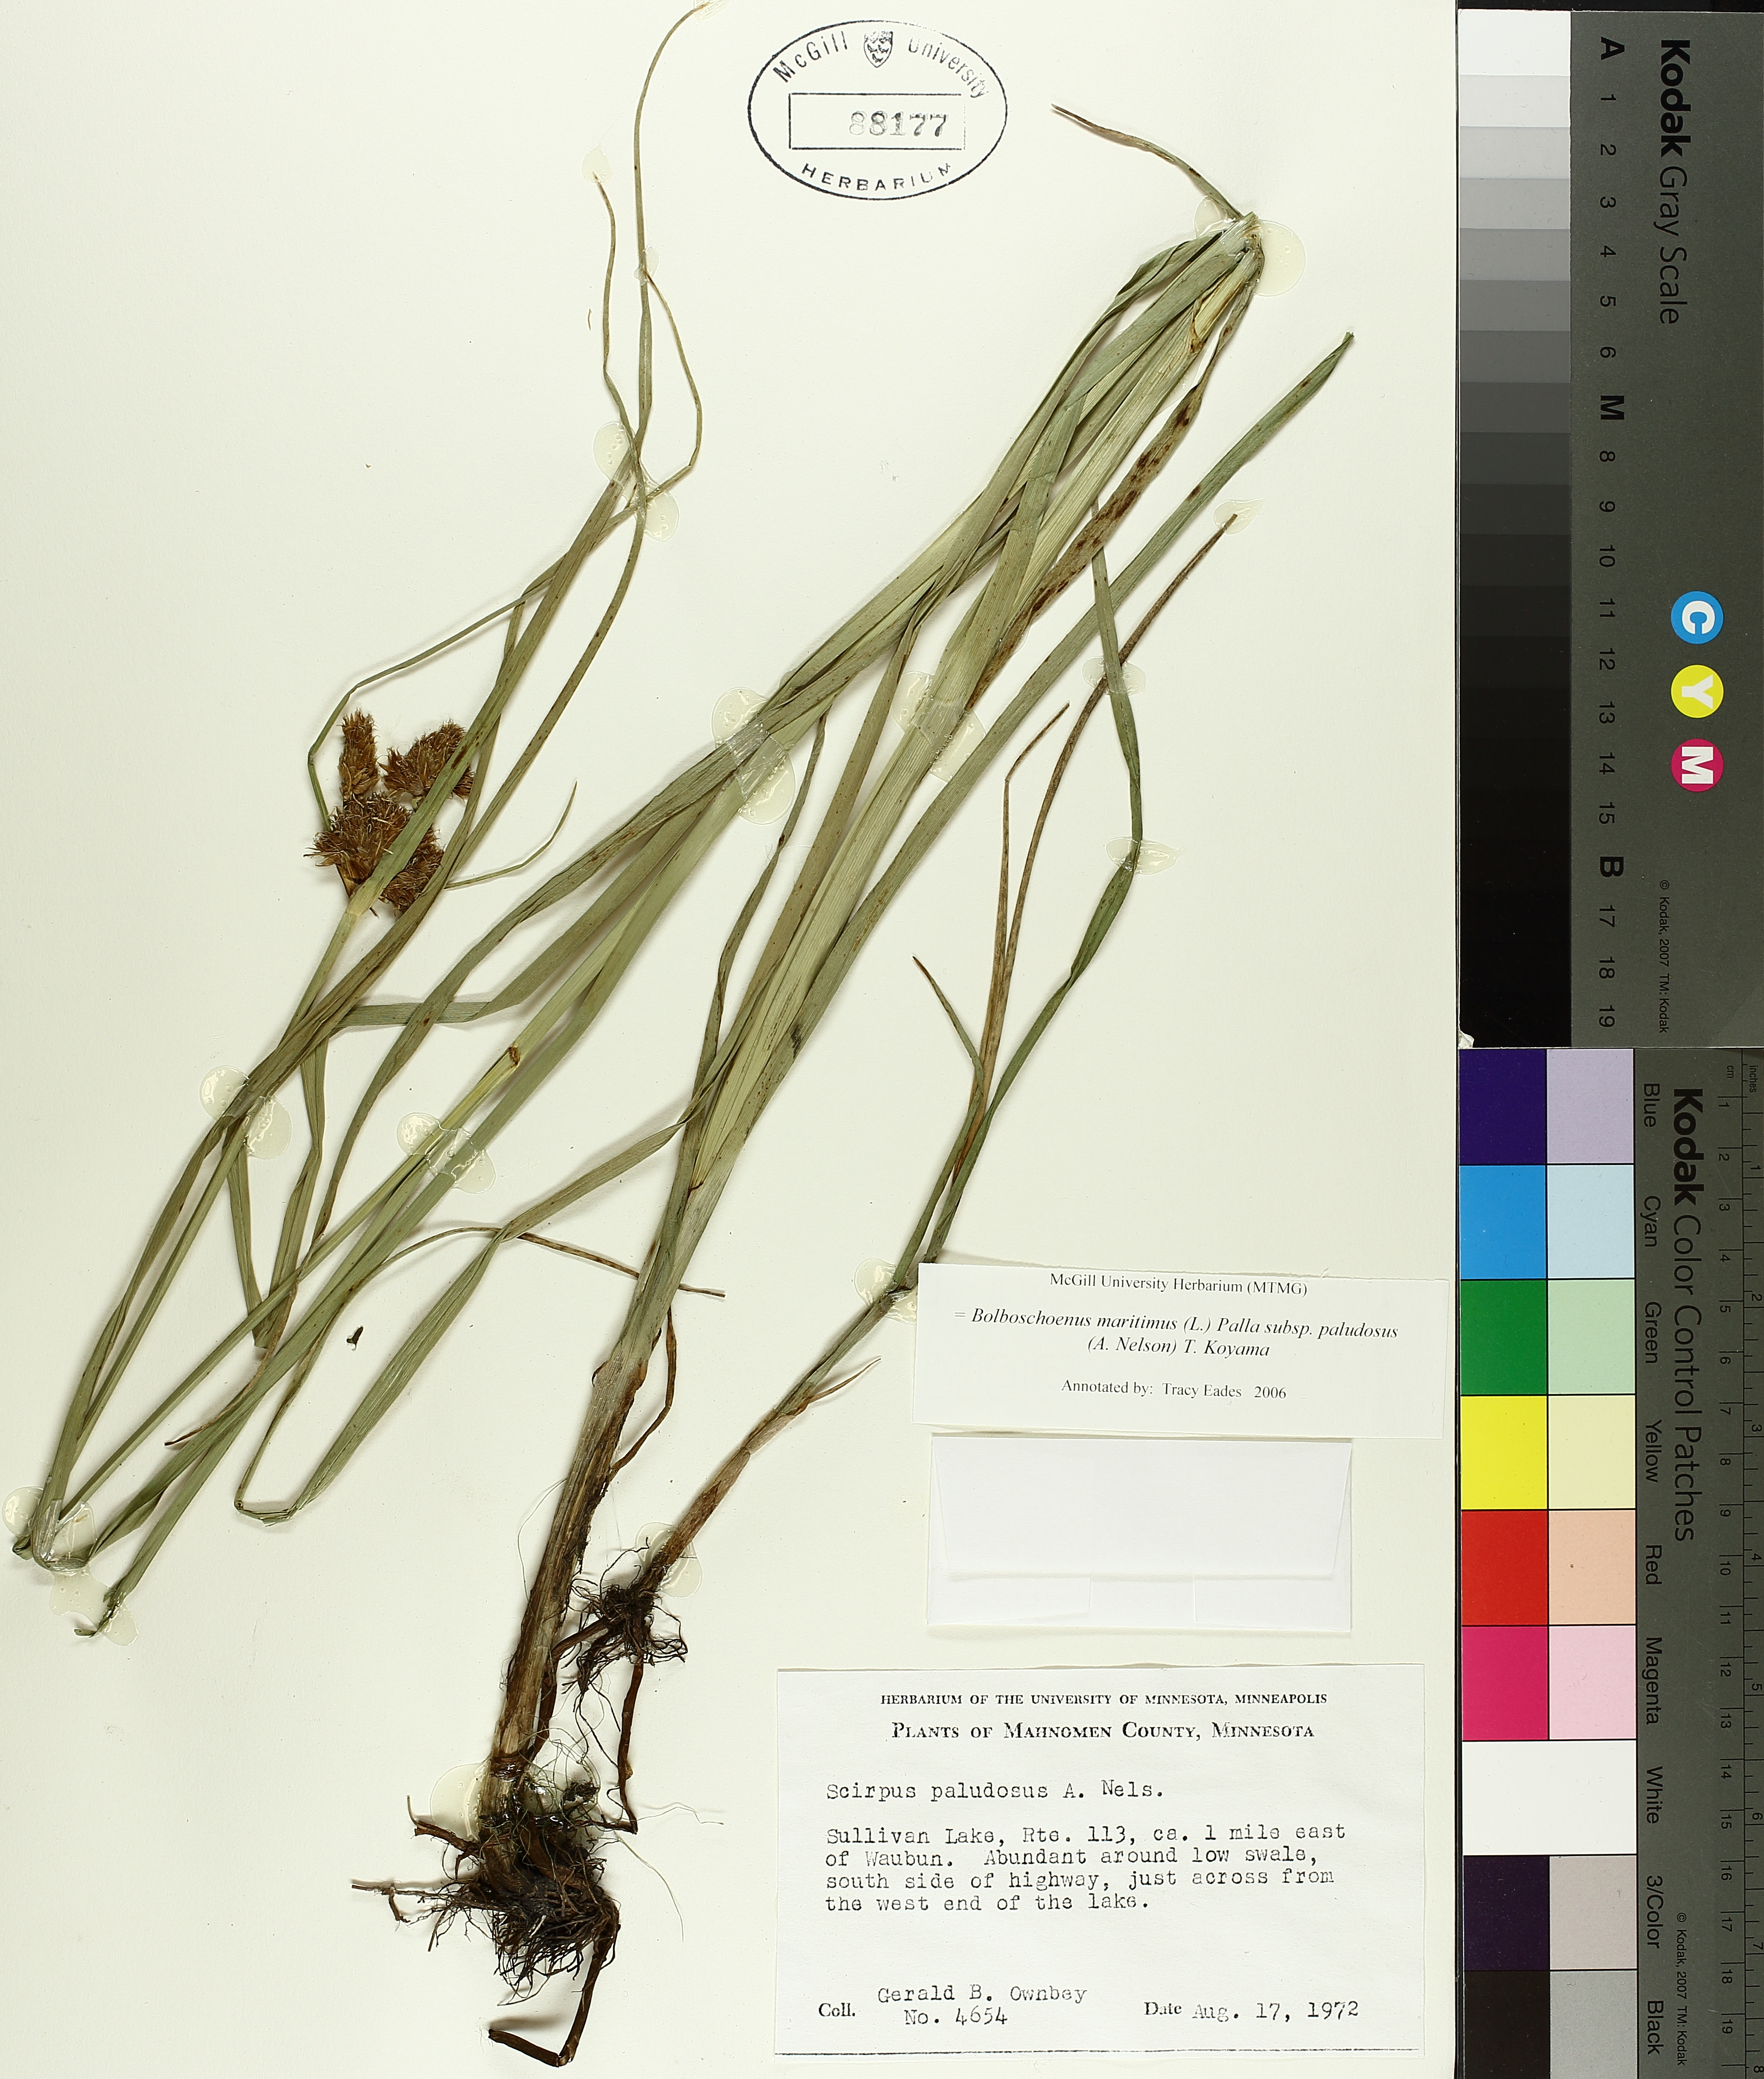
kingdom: Plantae
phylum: Tracheophyta
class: Liliopsida
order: Poales
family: Cyperaceae
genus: Bolboschoenus
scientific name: Bolboschoenus maritimus
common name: Sea club-rush
